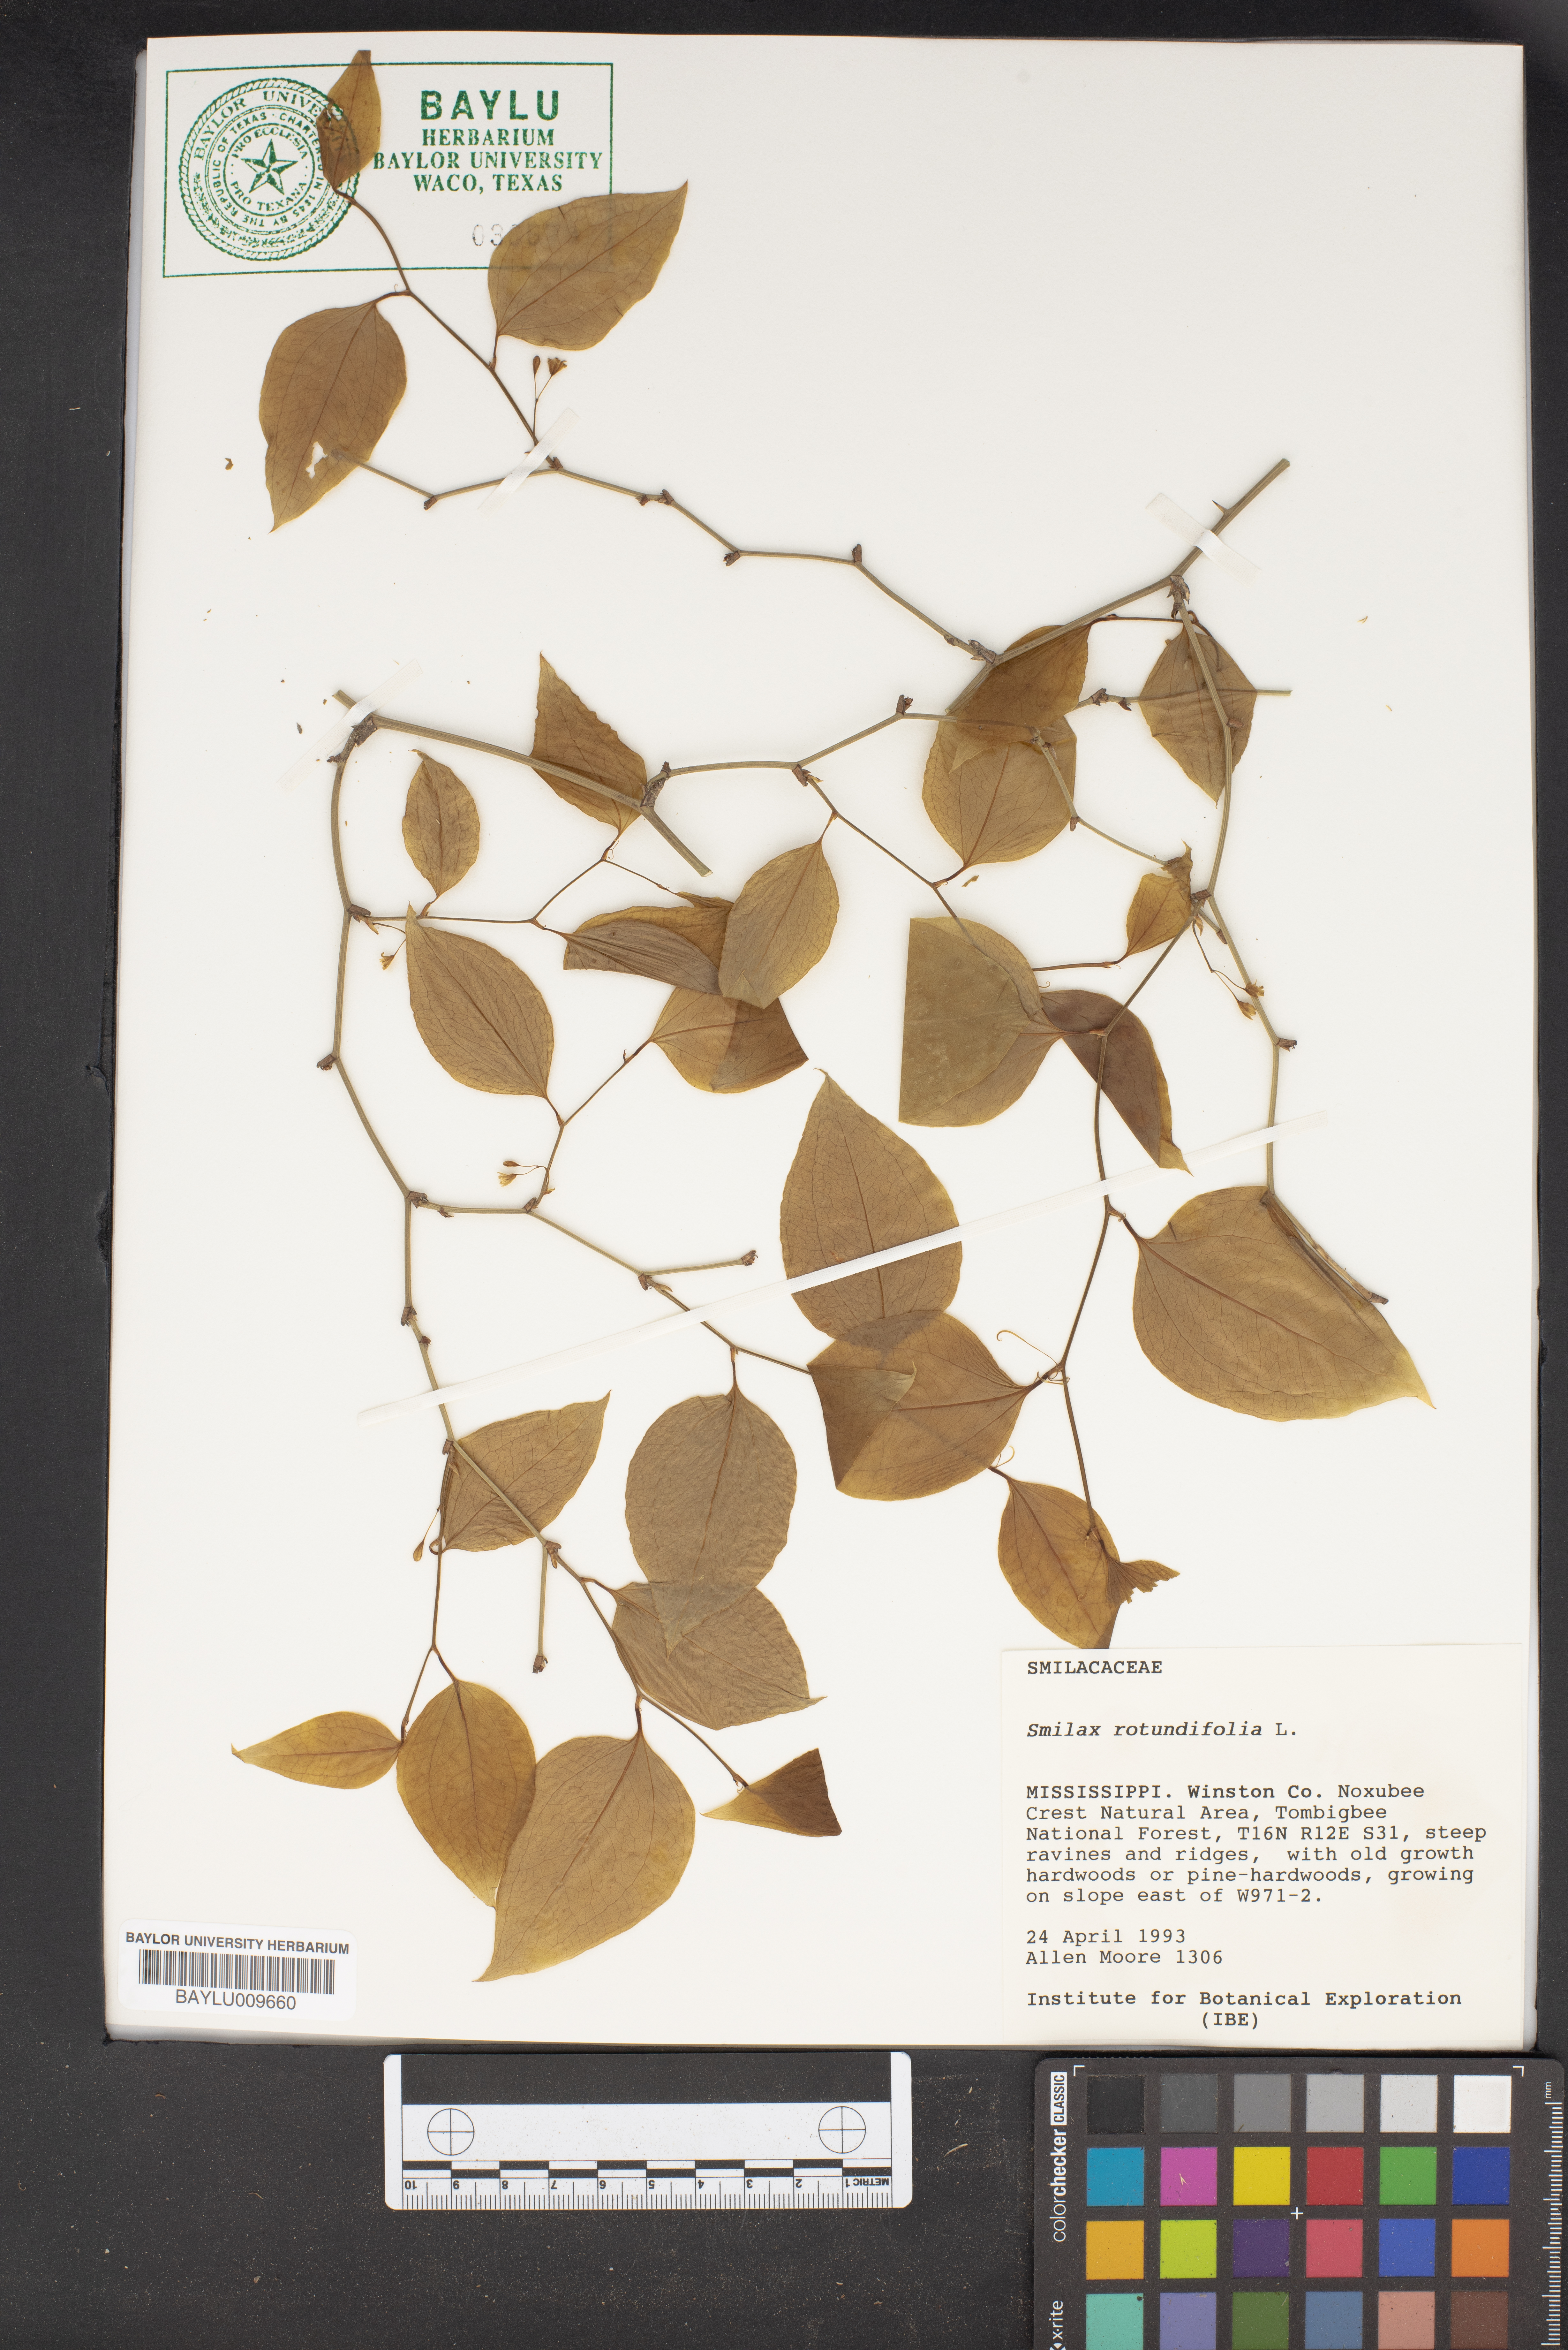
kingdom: Plantae
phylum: Tracheophyta
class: Liliopsida
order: Liliales
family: Smilacaceae
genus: Smilax
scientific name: Smilax rotundifolia
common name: Bullbriar
